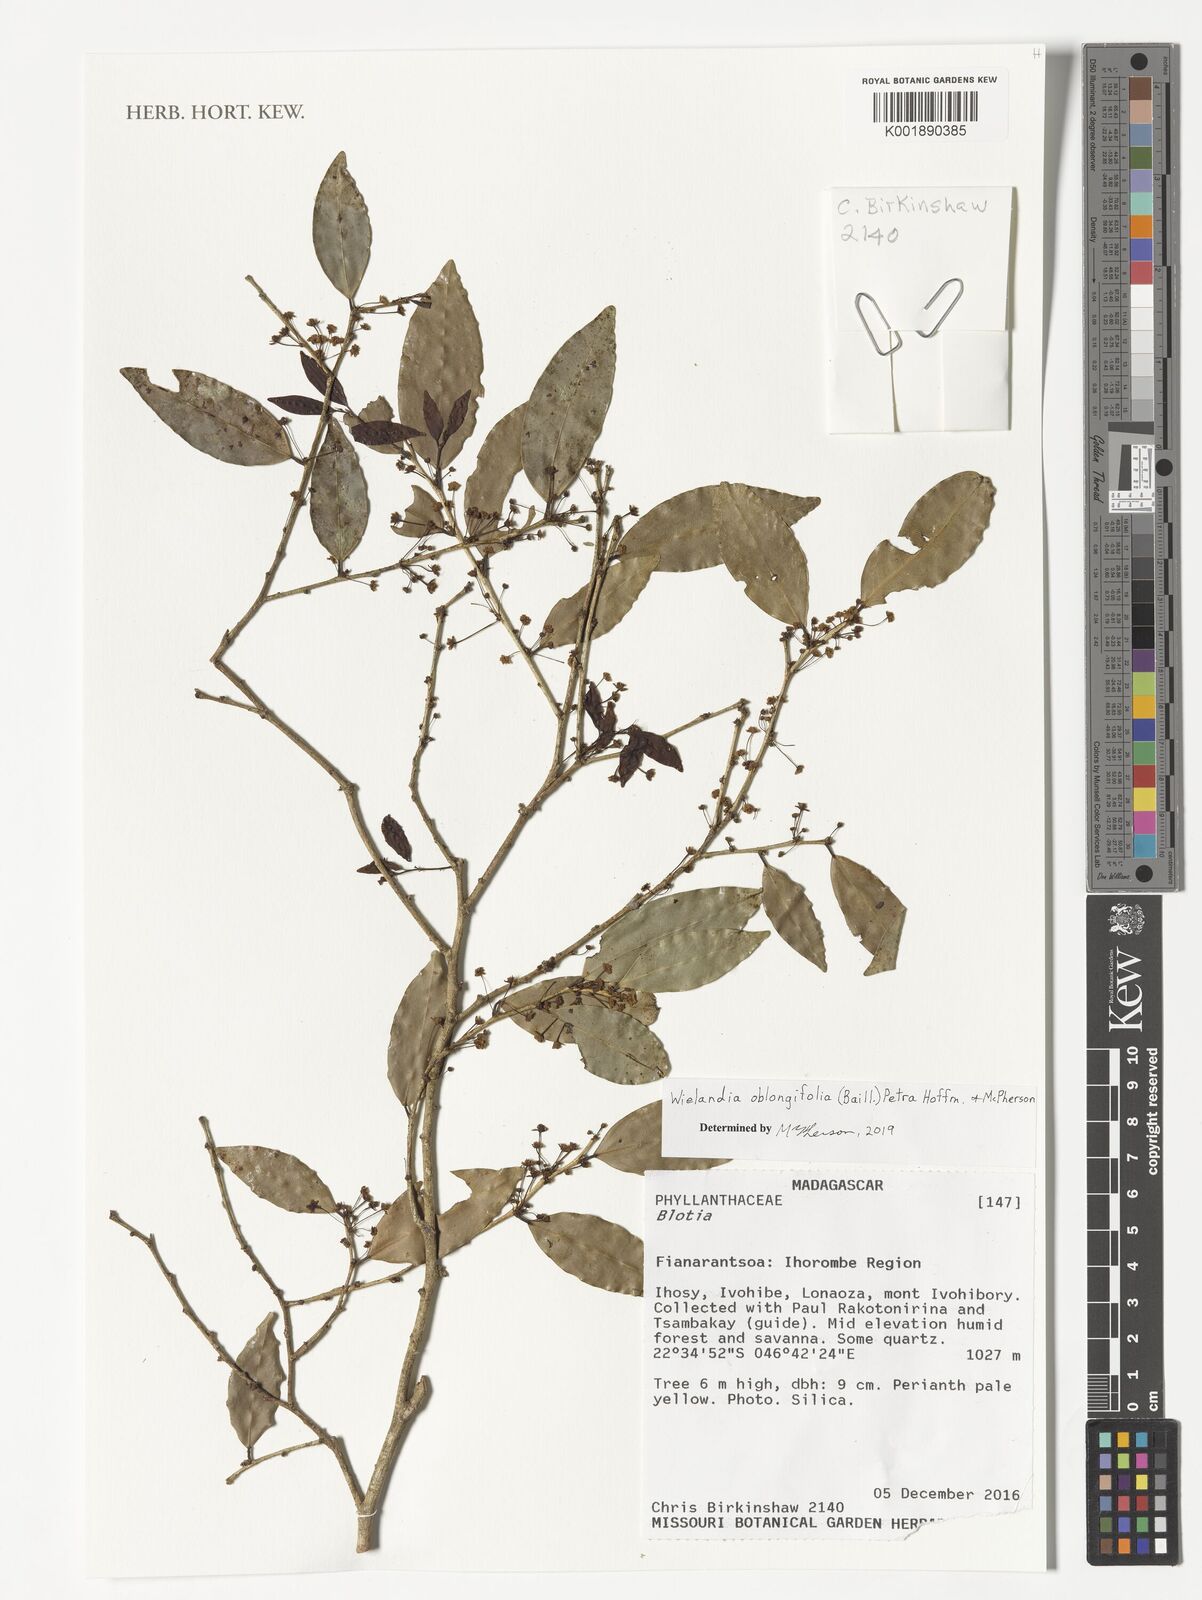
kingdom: Plantae
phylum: Tracheophyta
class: Magnoliopsida
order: Malpighiales
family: Phyllanthaceae
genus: Wielandia
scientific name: Wielandia oblongifolia
